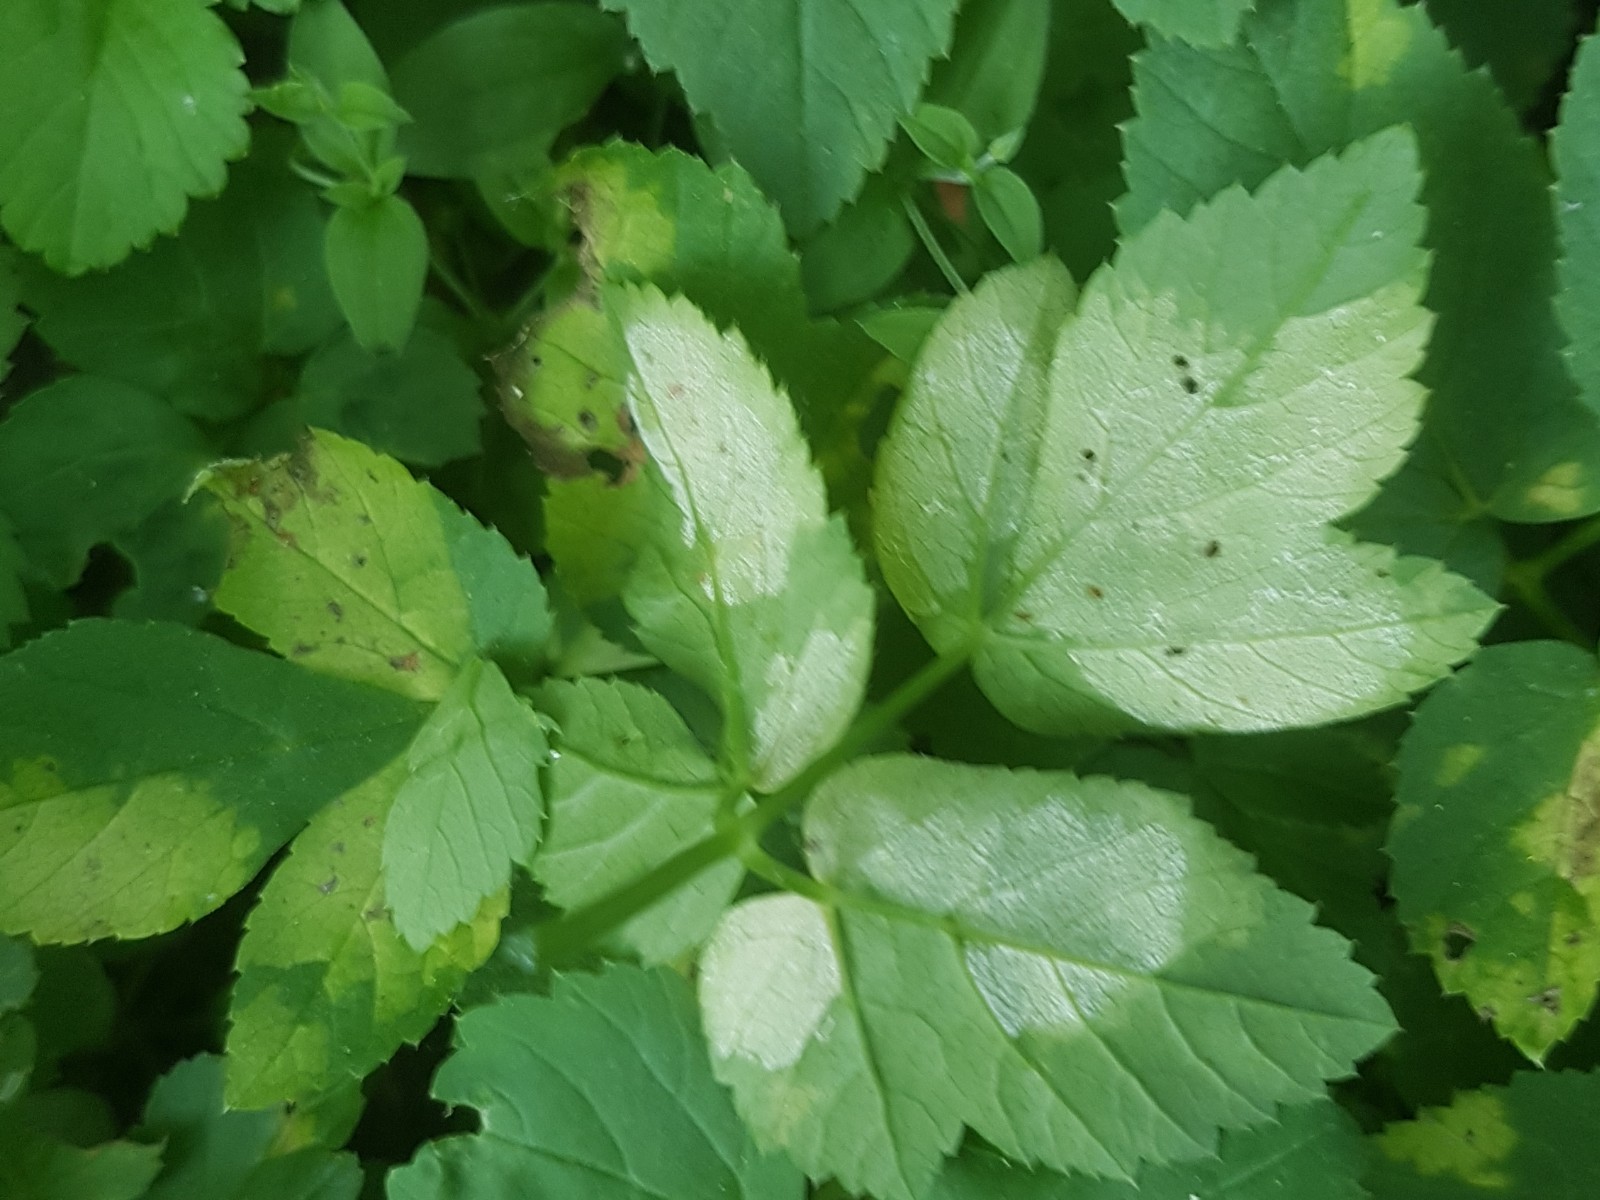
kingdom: Chromista
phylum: Oomycota
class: Peronosporea
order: Peronosporales
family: Peronosporaceae
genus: Peronospora
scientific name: Peronospora crustosa
